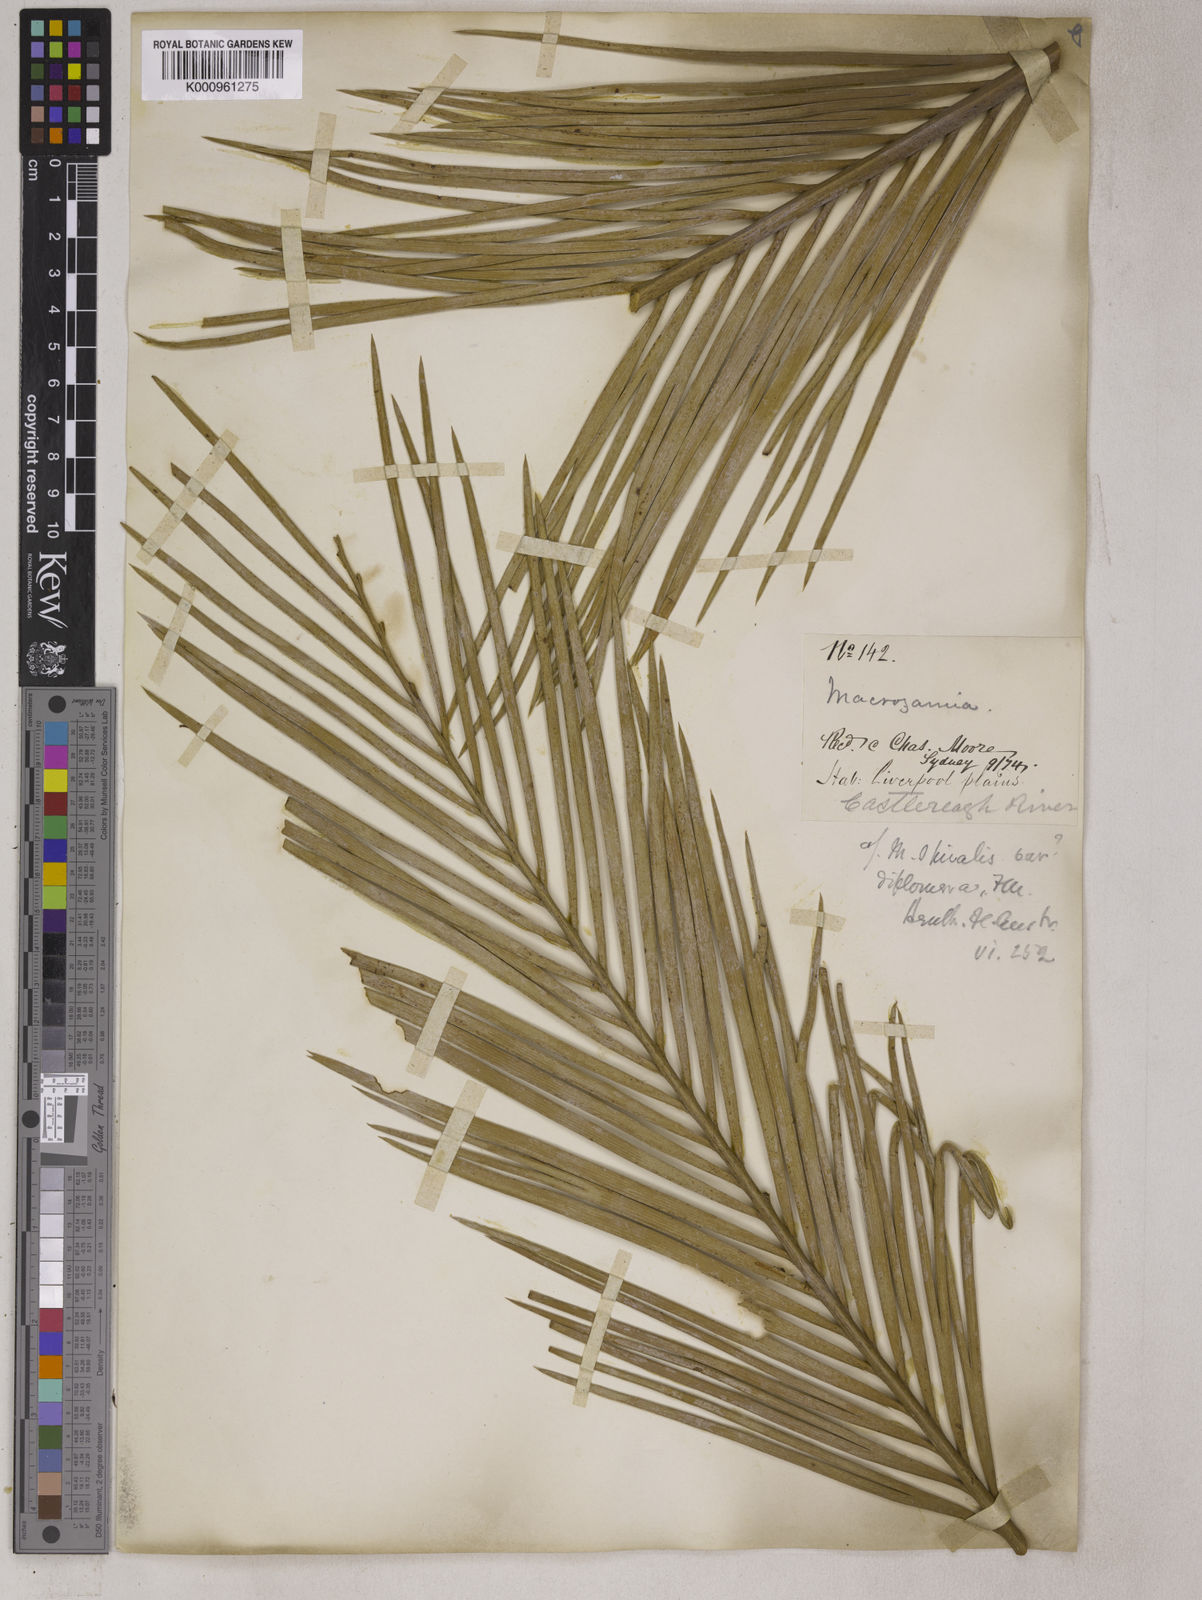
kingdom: Plantae
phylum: Tracheophyta
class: Cycadopsida
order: Cycadales
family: Zamiaceae
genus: Macrozamia
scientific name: Macrozamia spiralis
